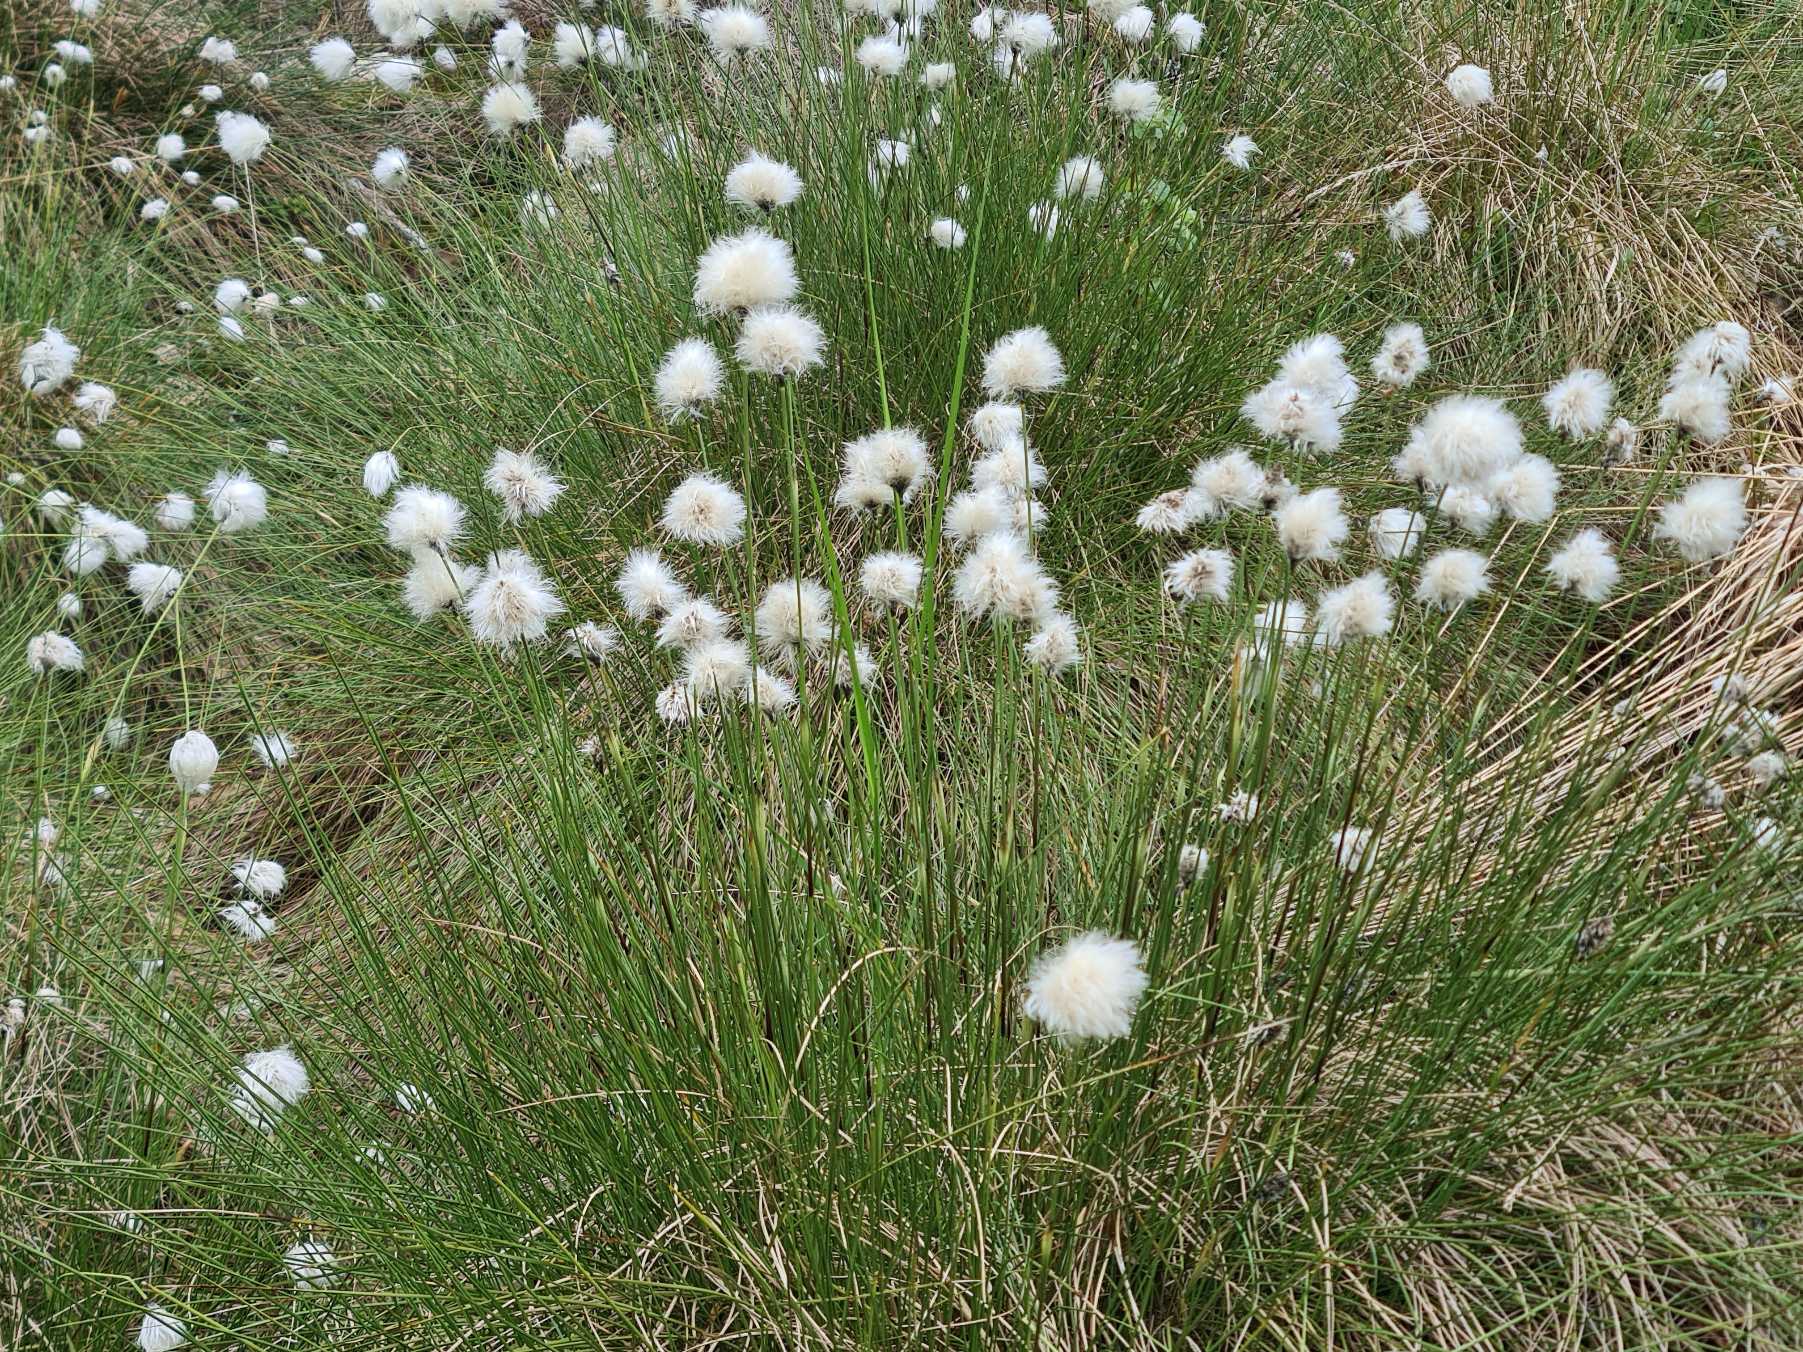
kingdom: Plantae
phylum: Tracheophyta
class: Liliopsida
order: Poales
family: Cyperaceae
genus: Eriophorum
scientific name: Eriophorum vaginatum
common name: Tue-kæruld
